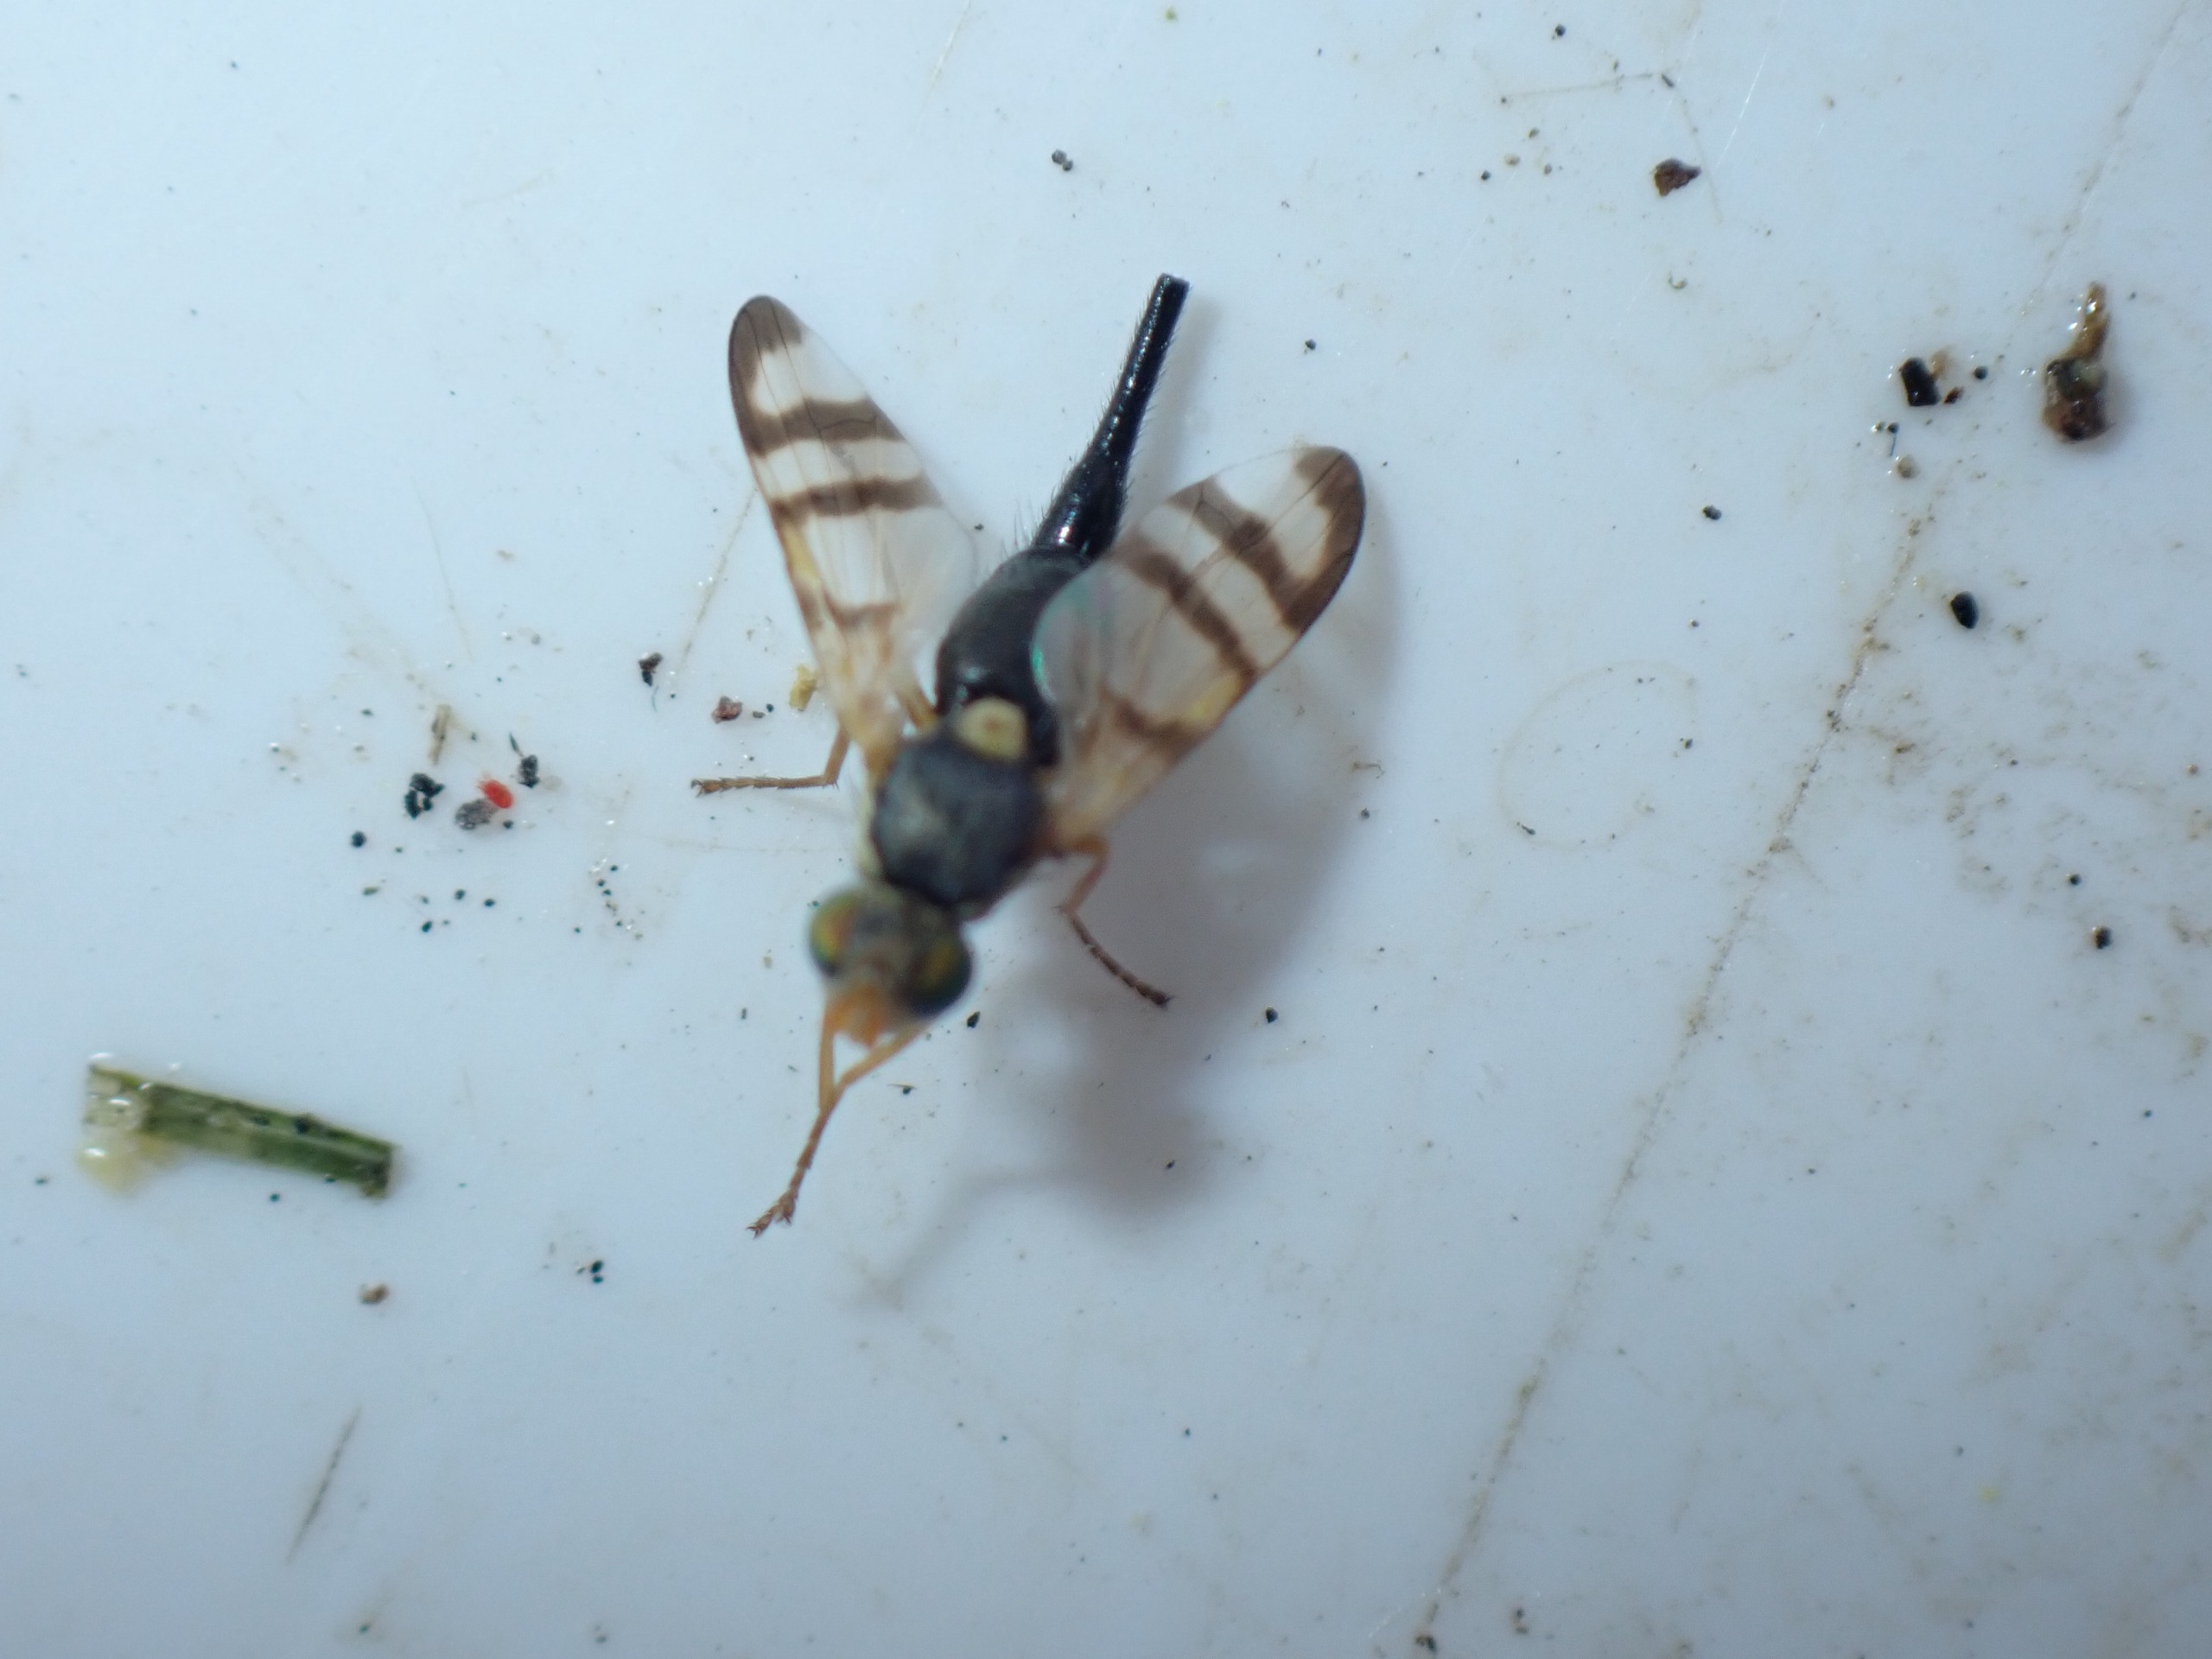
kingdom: Animalia
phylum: Arthropoda
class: Insecta
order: Diptera
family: Tephritidae
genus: Urophora
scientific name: Urophora solstitialis
